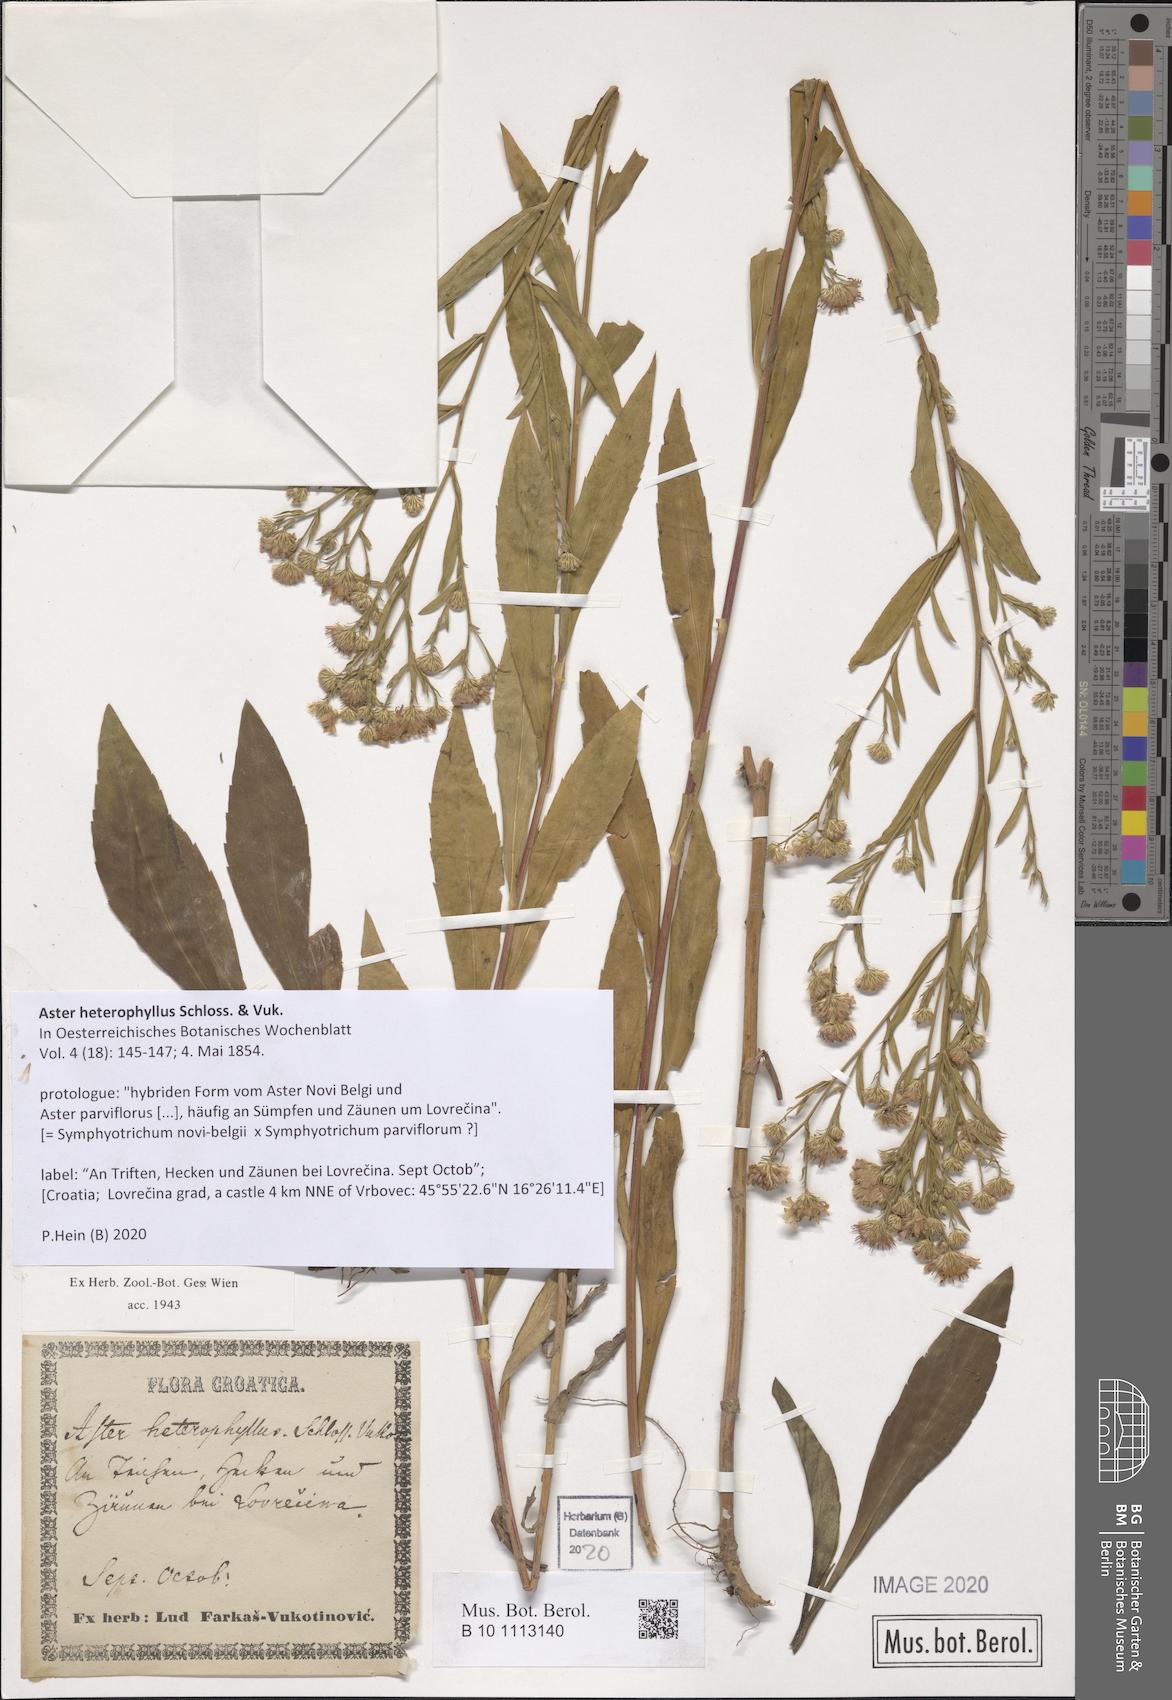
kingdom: Plantae
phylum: Tracheophyta
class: Magnoliopsida
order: Asterales
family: Asteraceae
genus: Aster
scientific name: Aster heterophyllus
